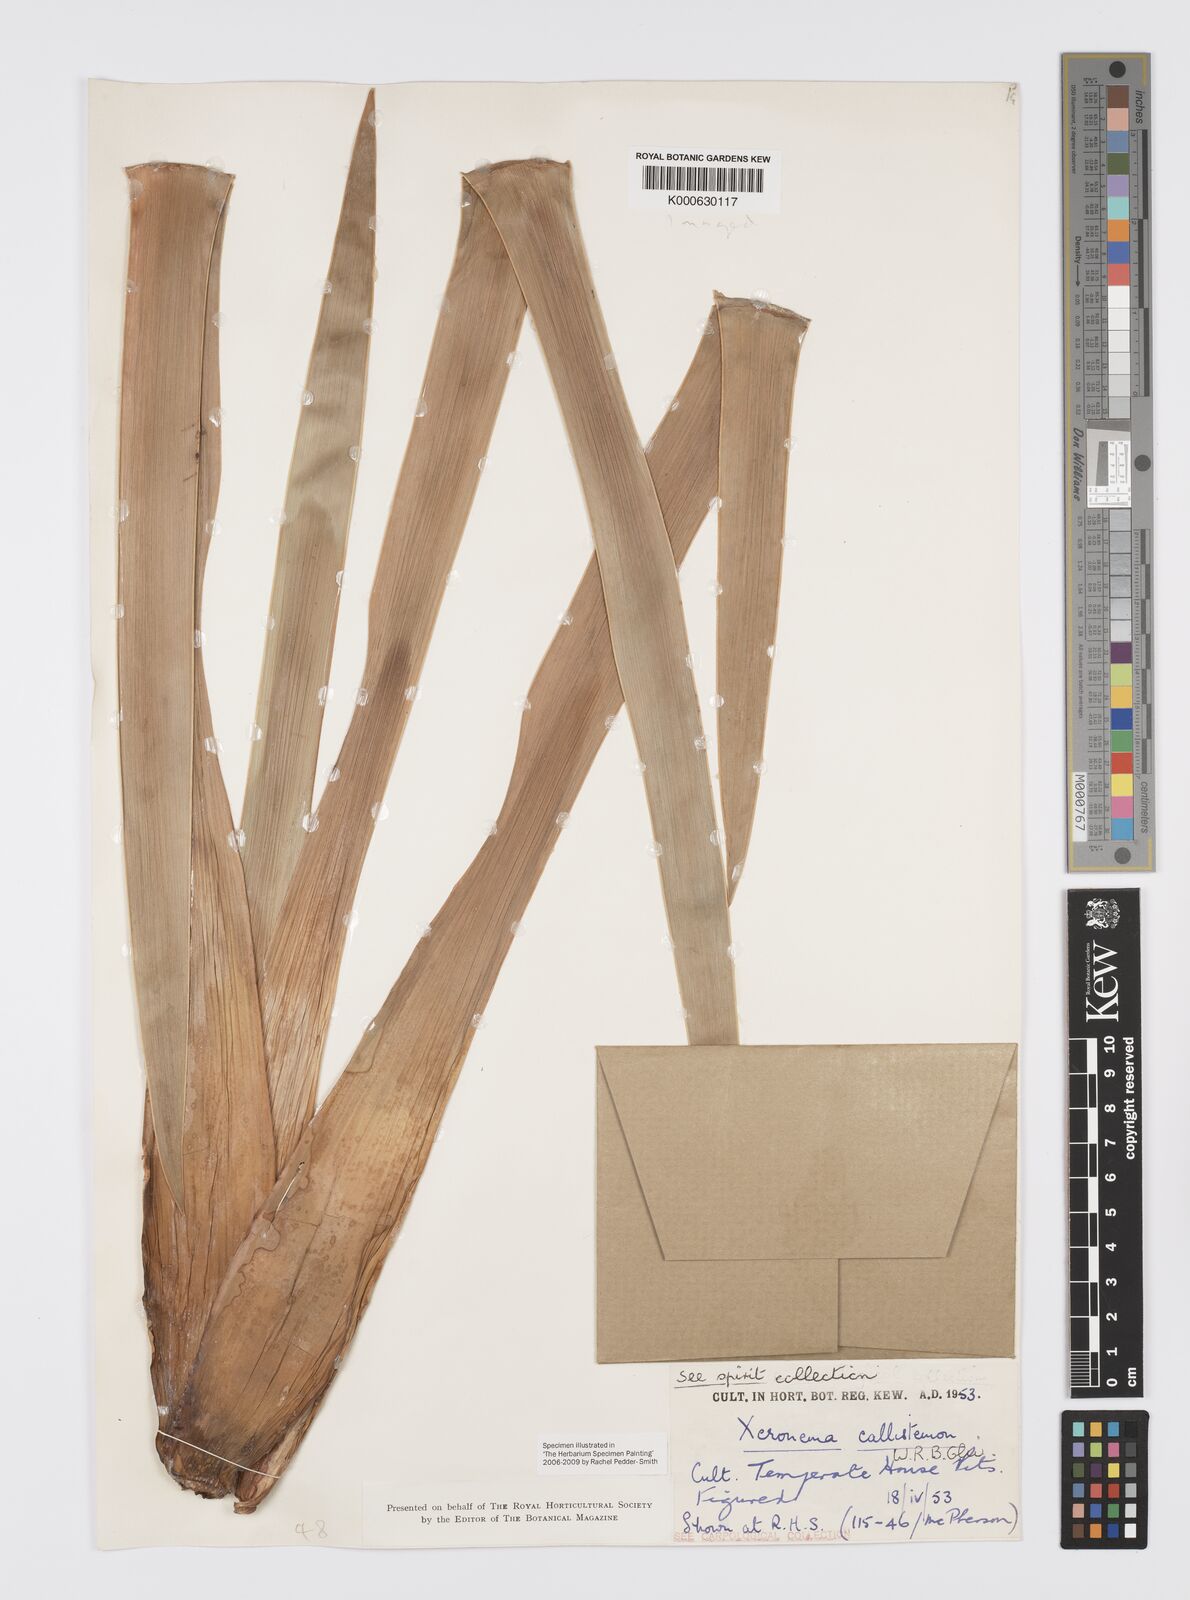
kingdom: Plantae
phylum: Tracheophyta
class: Liliopsida
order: Asparagales
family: Xeronemataceae
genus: Xeronema
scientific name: Xeronema callistemon
